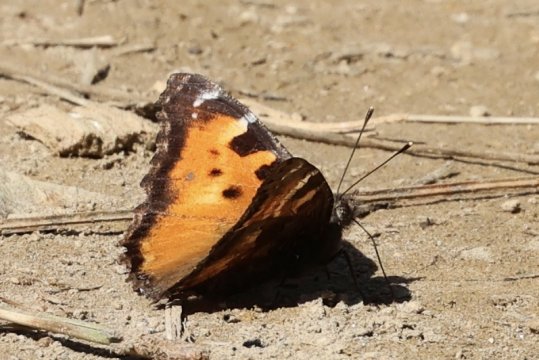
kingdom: Animalia
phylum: Arthropoda
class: Insecta
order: Lepidoptera
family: Nymphalidae
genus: Nymphalis
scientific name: Nymphalis californica
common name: California Tortoiseshell
